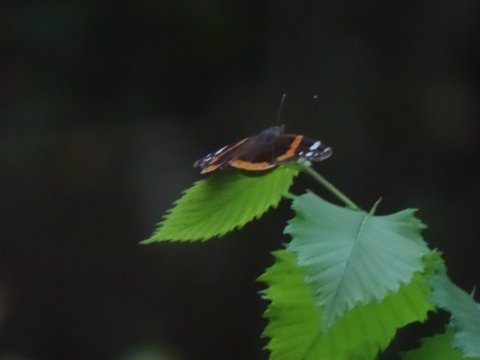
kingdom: Animalia
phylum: Arthropoda
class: Insecta
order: Lepidoptera
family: Nymphalidae
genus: Vanessa
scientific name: Vanessa atalanta
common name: Red Admiral
